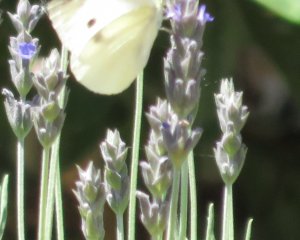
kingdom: Animalia
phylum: Arthropoda
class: Insecta
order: Lepidoptera
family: Pieridae
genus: Pieris
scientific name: Pieris rapae
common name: Cabbage White
